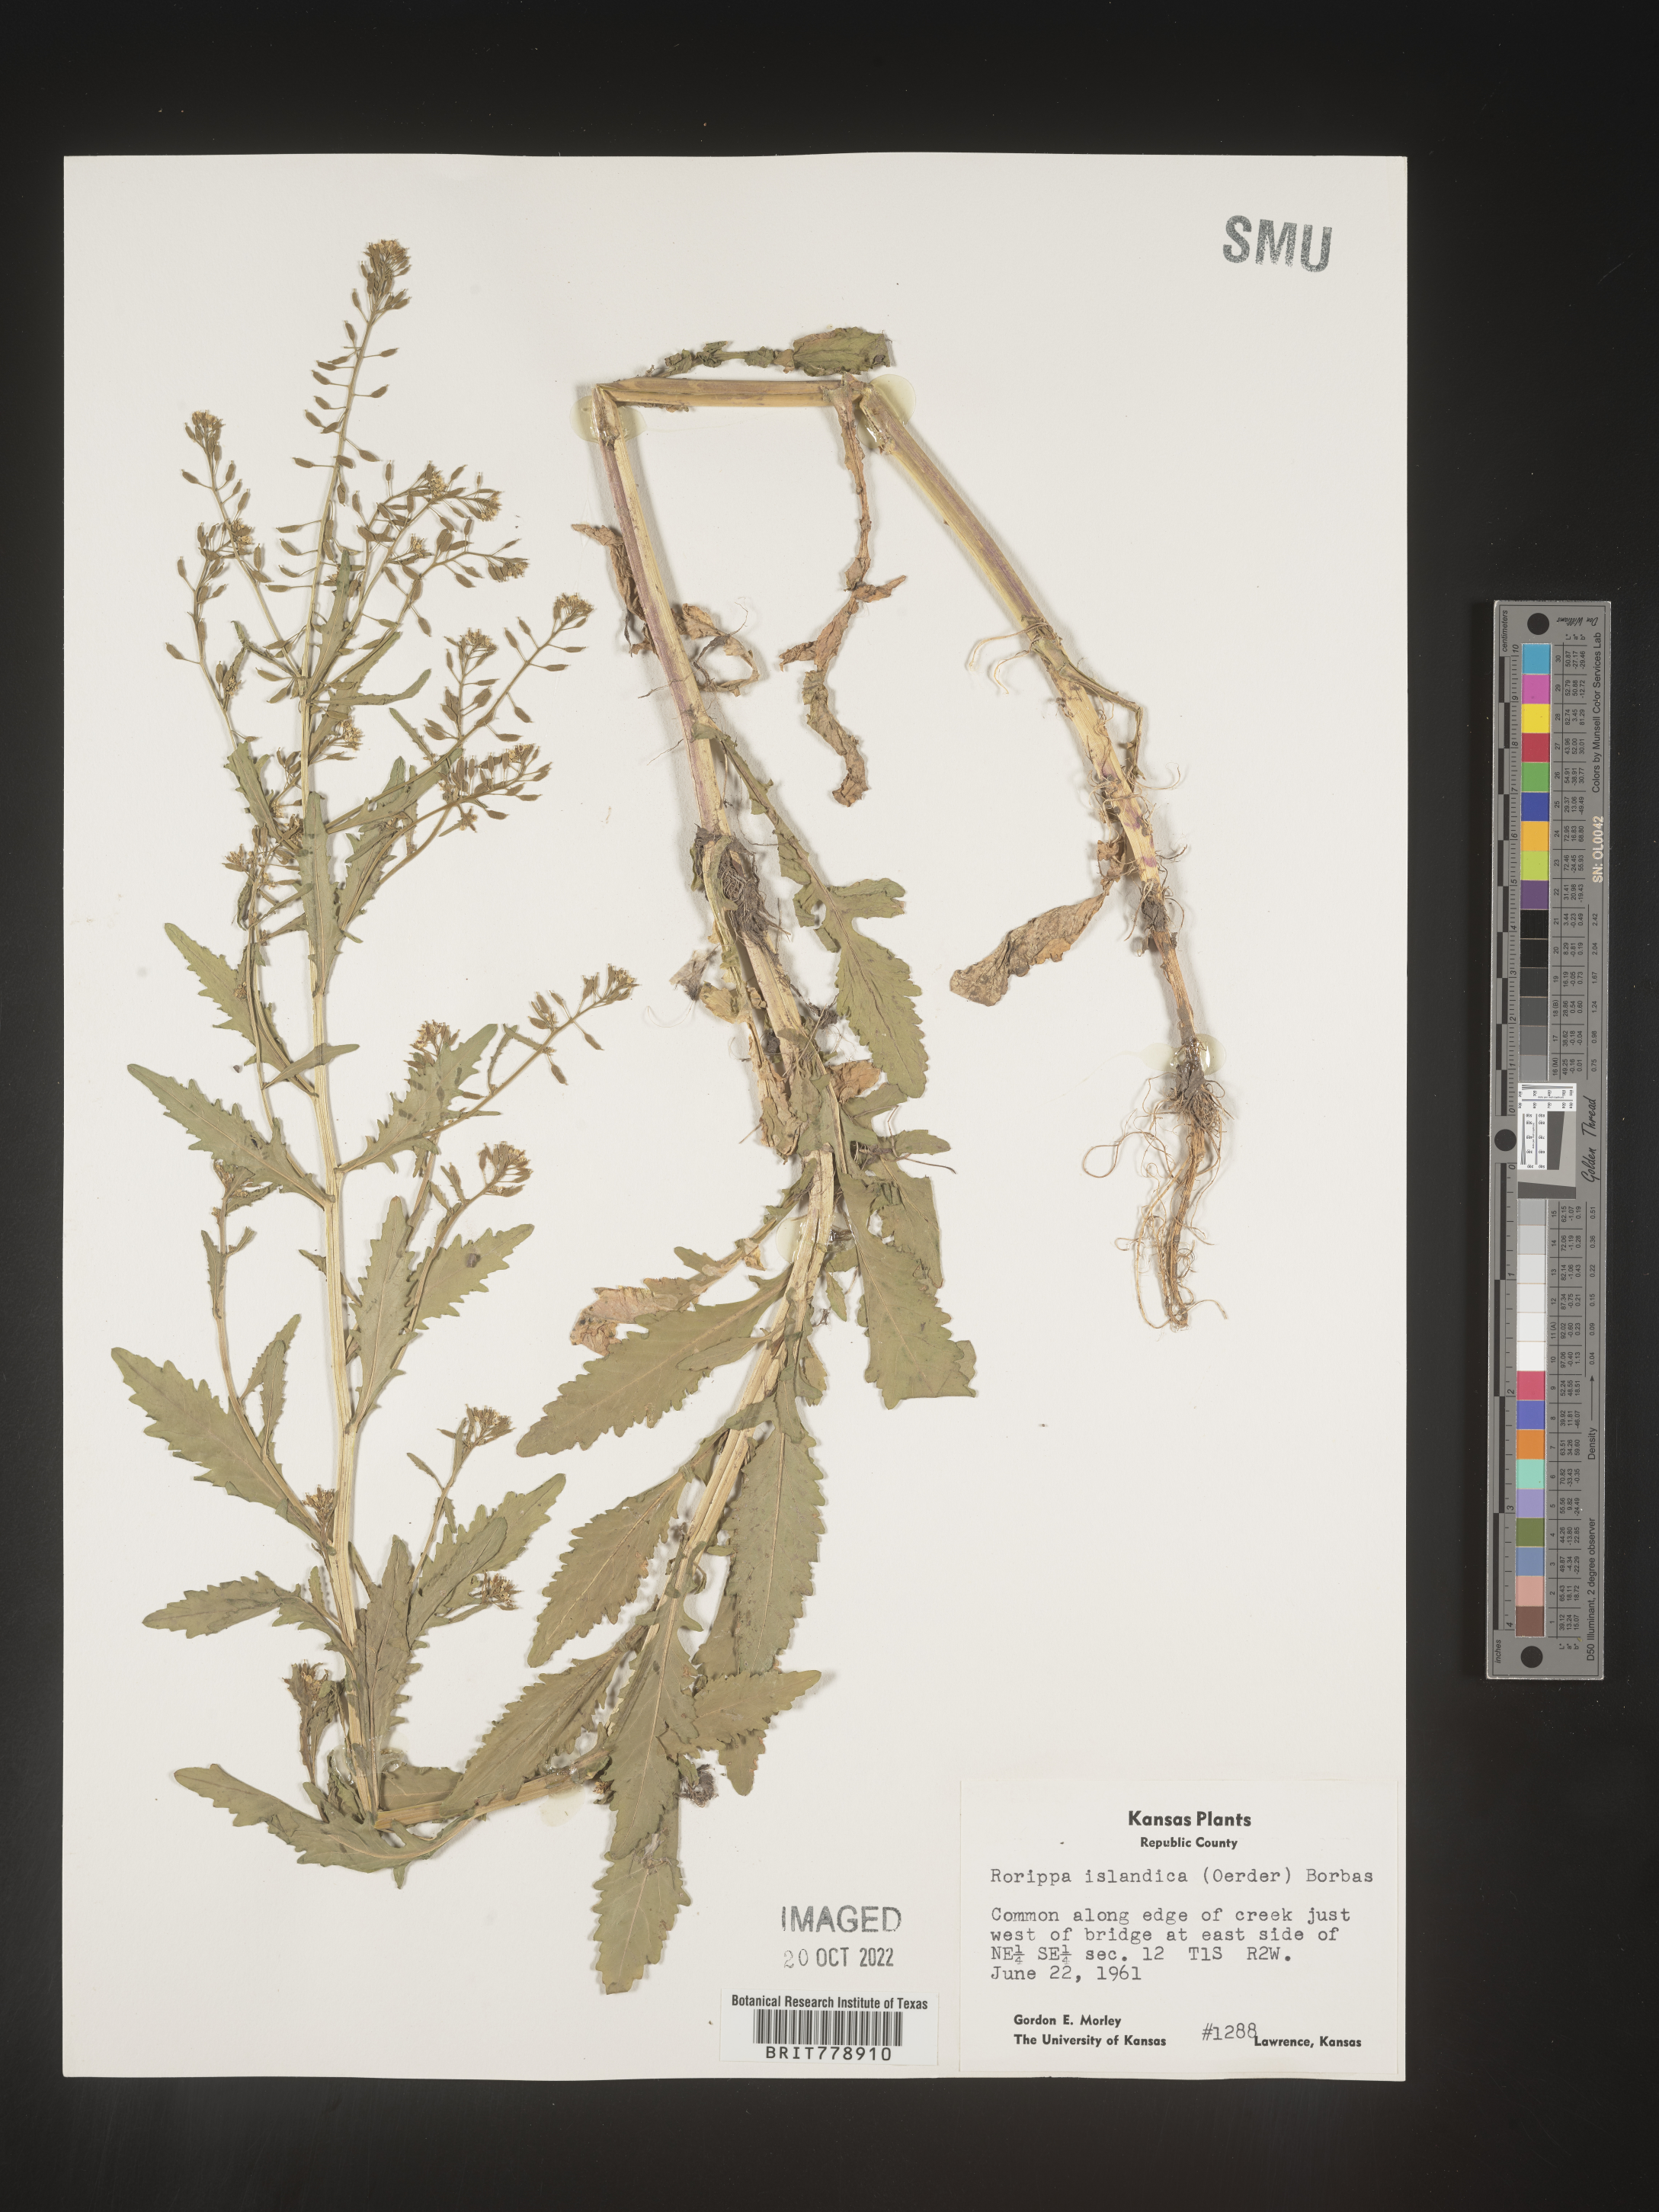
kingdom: Plantae
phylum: Tracheophyta
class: Magnoliopsida
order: Brassicales
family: Brassicaceae
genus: Rorippa
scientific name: Rorippa palustris
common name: Marsh yellow-cress
